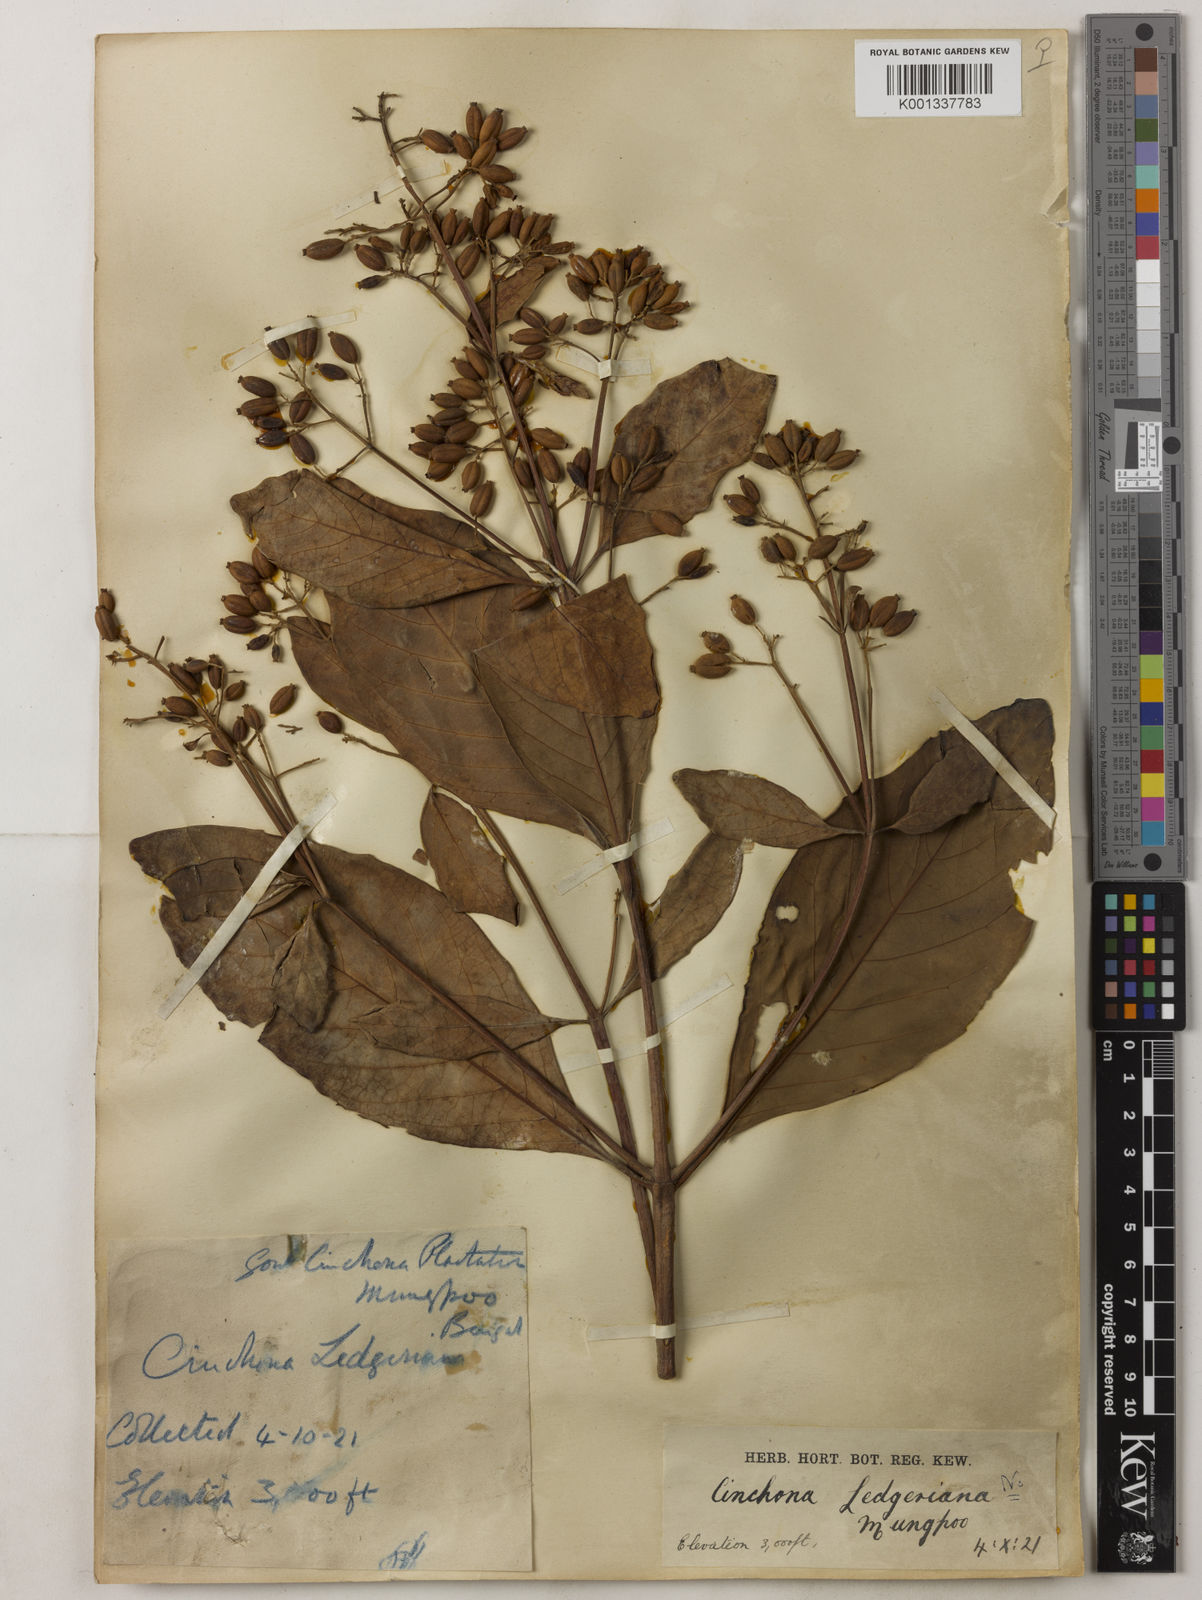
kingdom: Plantae
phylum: Tracheophyta
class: Magnoliopsida
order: Gentianales
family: Rubiaceae
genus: Cinchona
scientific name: Cinchona calisaya
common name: Ledgerbark
